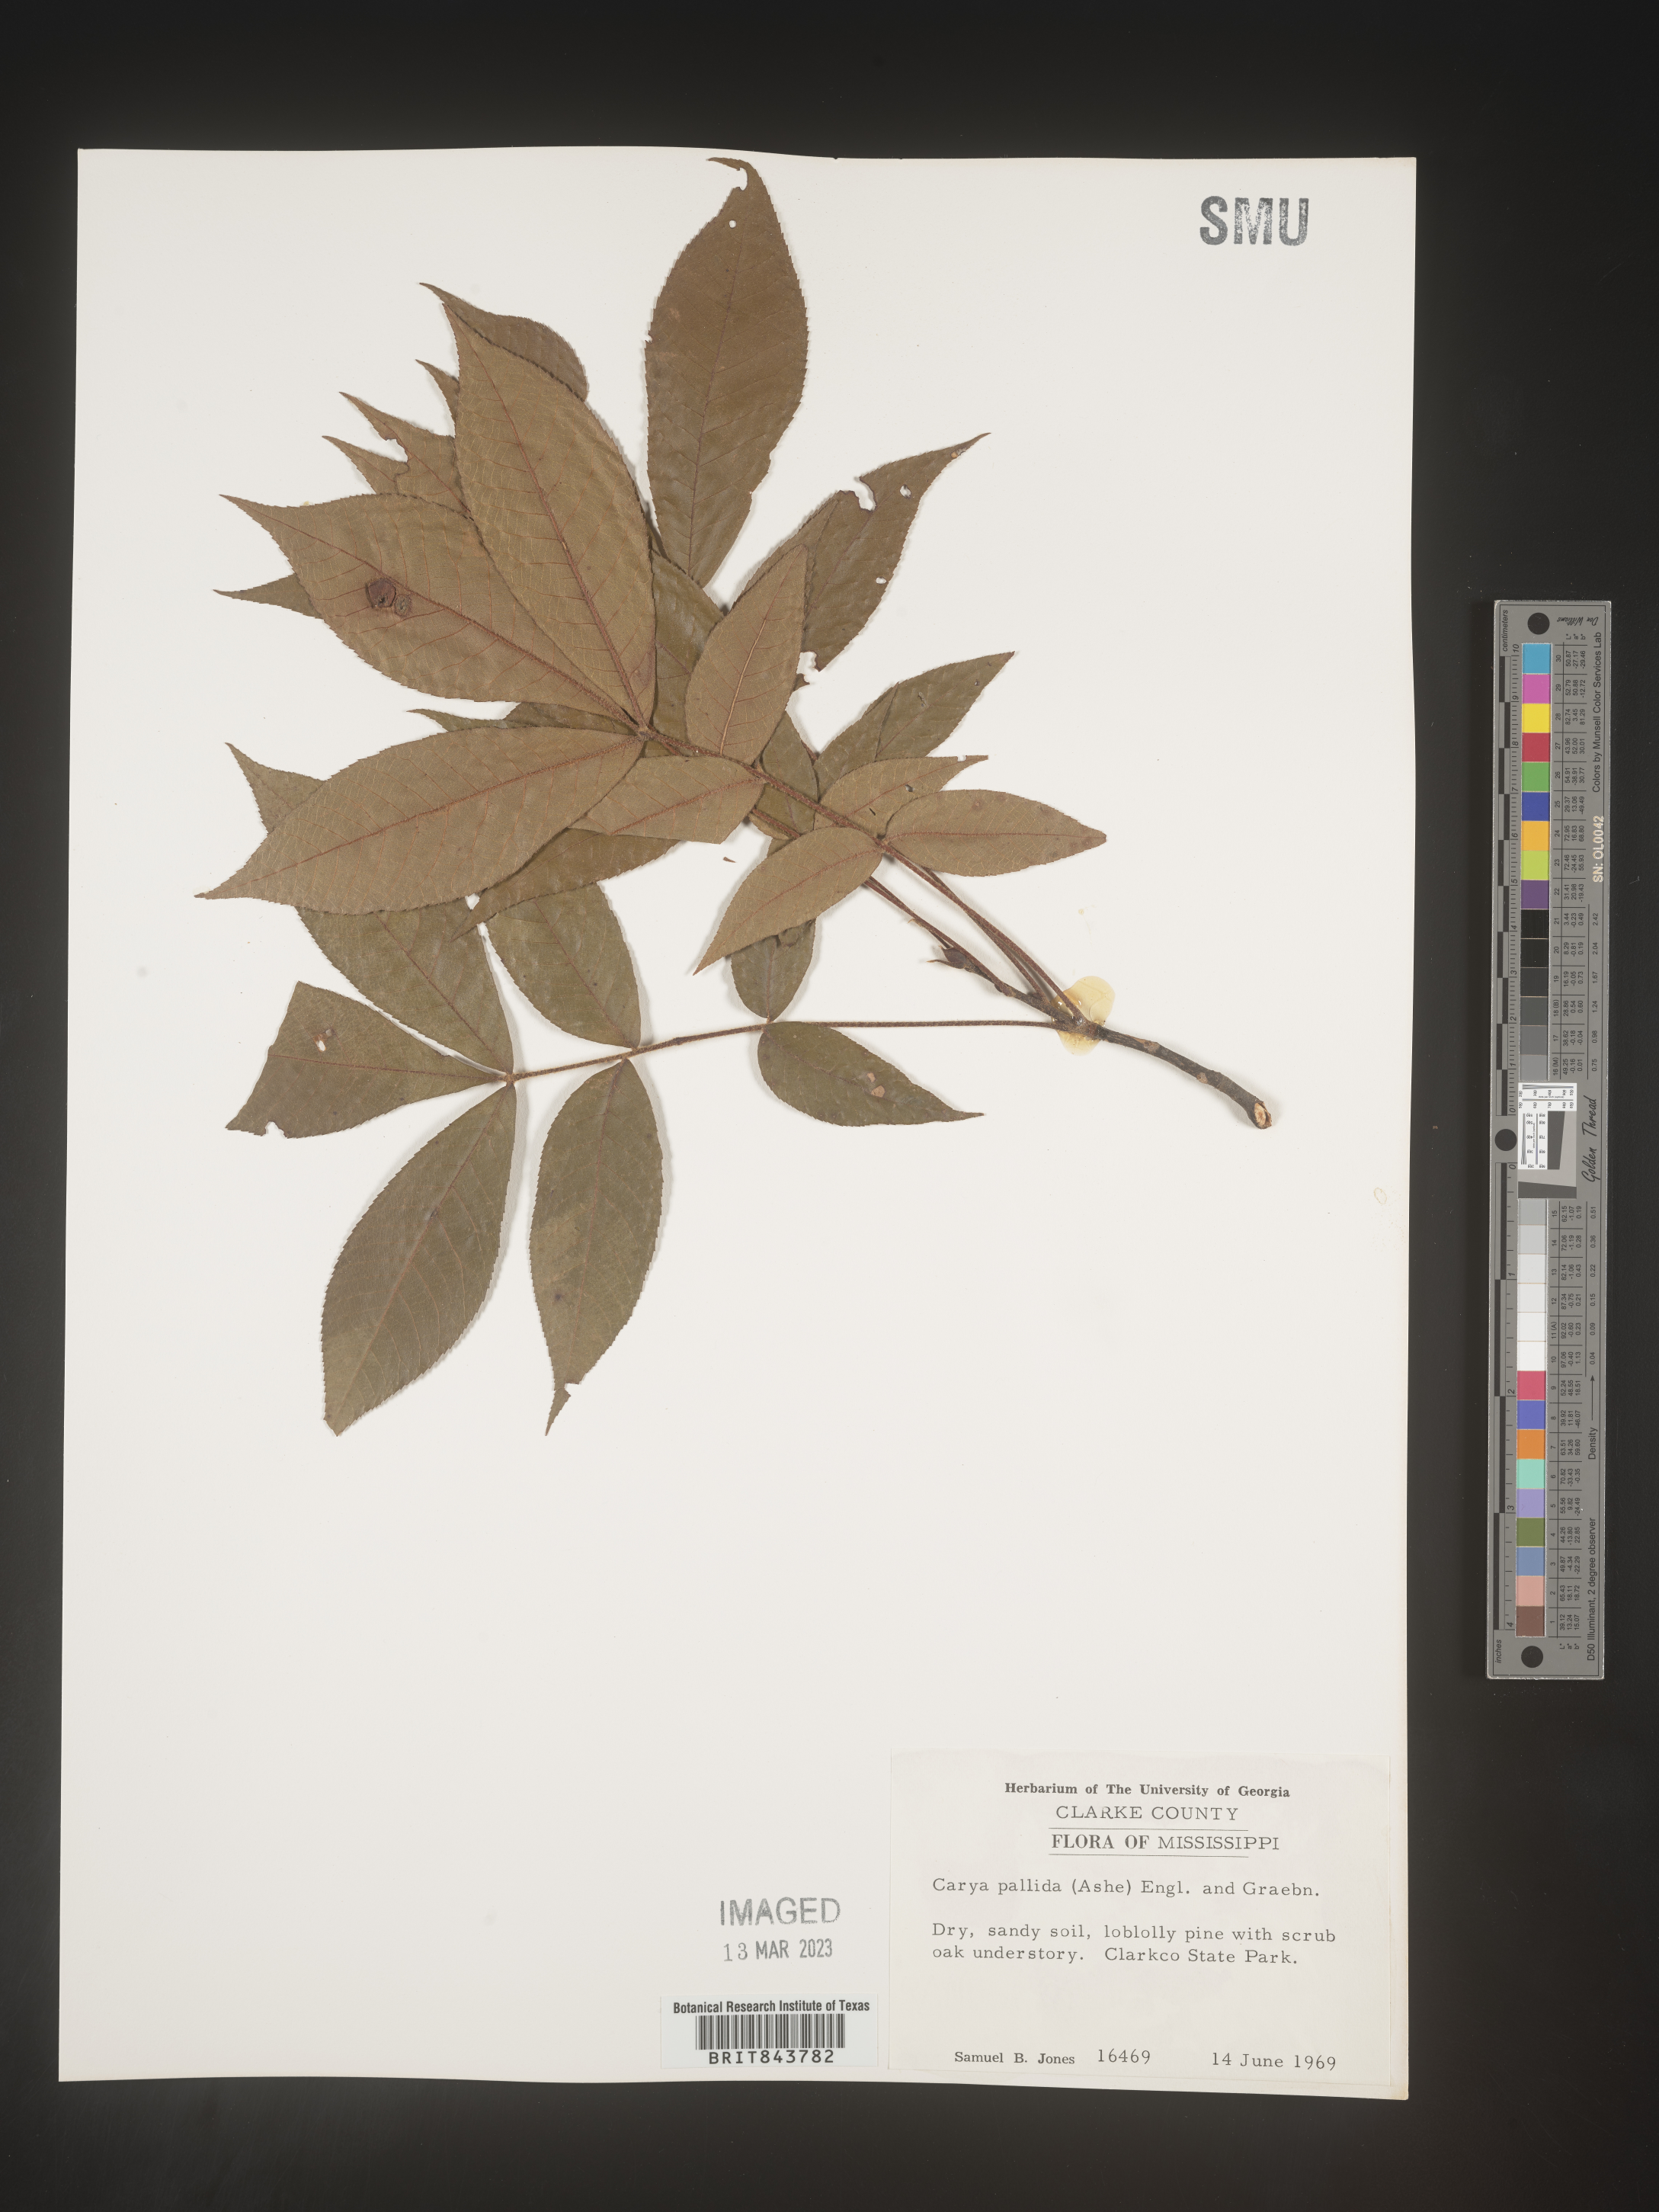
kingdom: Plantae
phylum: Tracheophyta
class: Magnoliopsida
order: Fagales
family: Juglandaceae
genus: Carya
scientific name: Carya pallida
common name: Sand hickory
